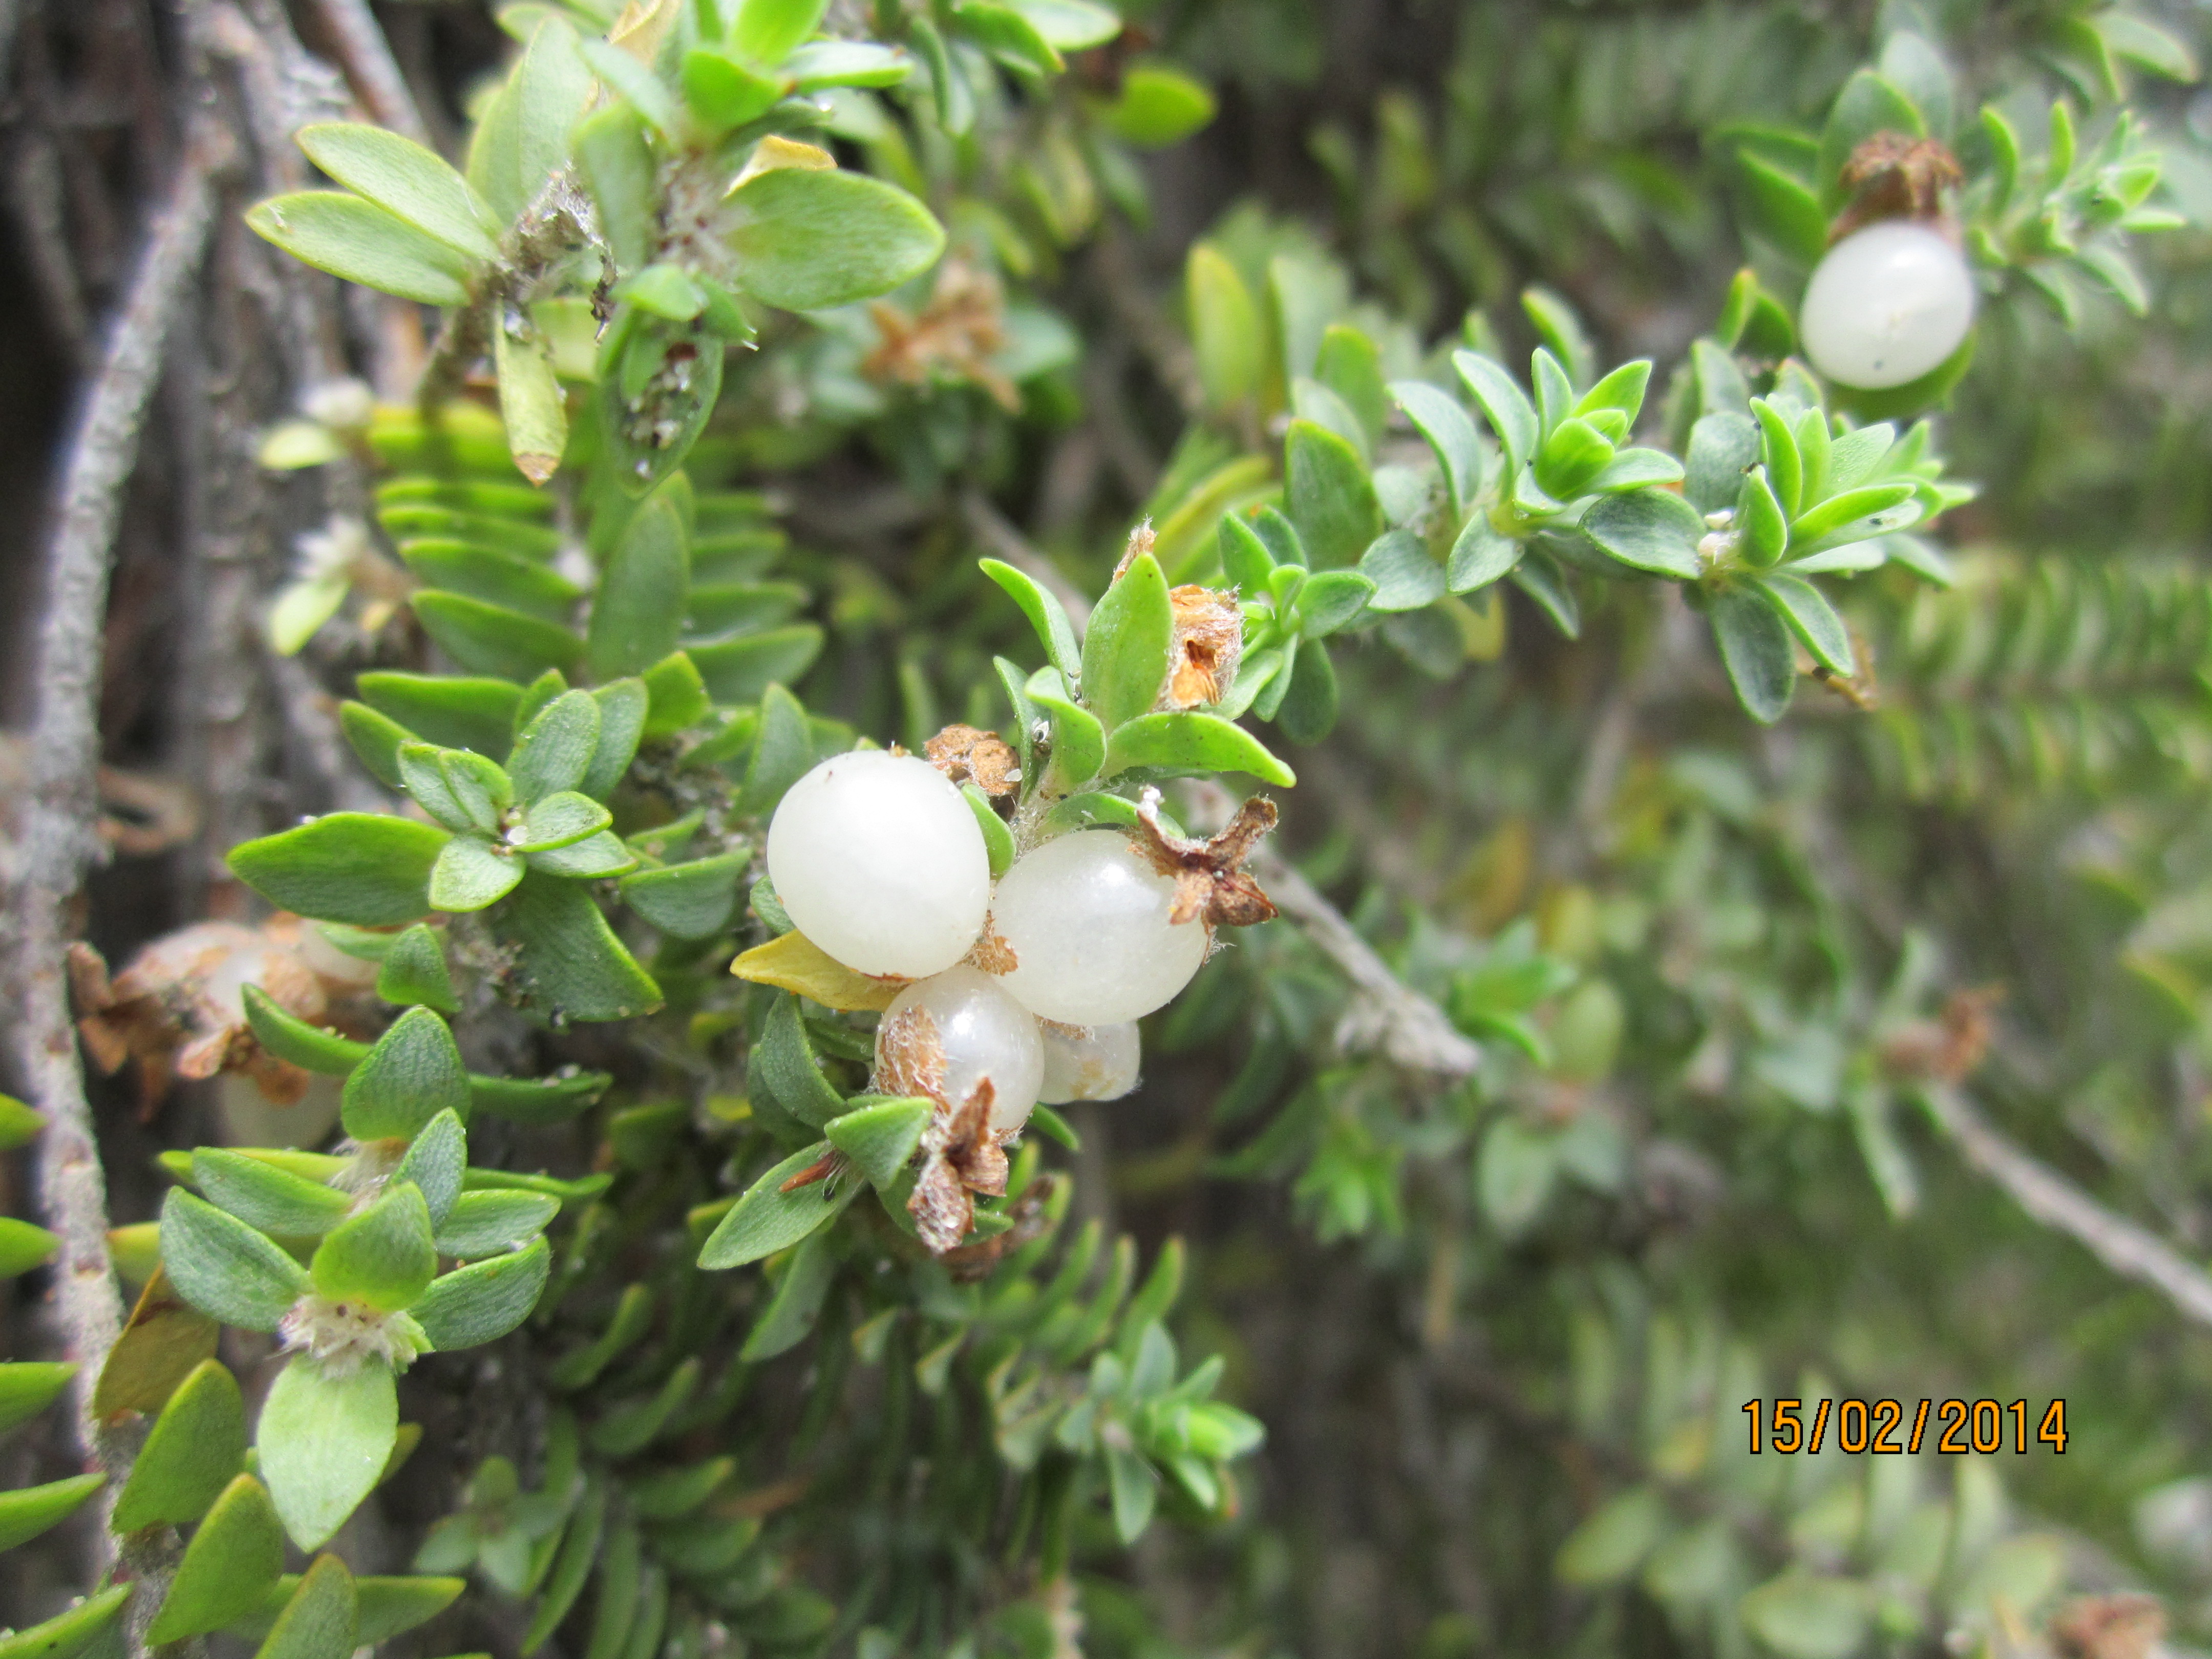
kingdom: Plantae
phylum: Tracheophyta
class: Magnoliopsida
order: Malvales
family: Thymelaeaceae
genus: Pimelea
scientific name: Pimelea urvilleana
